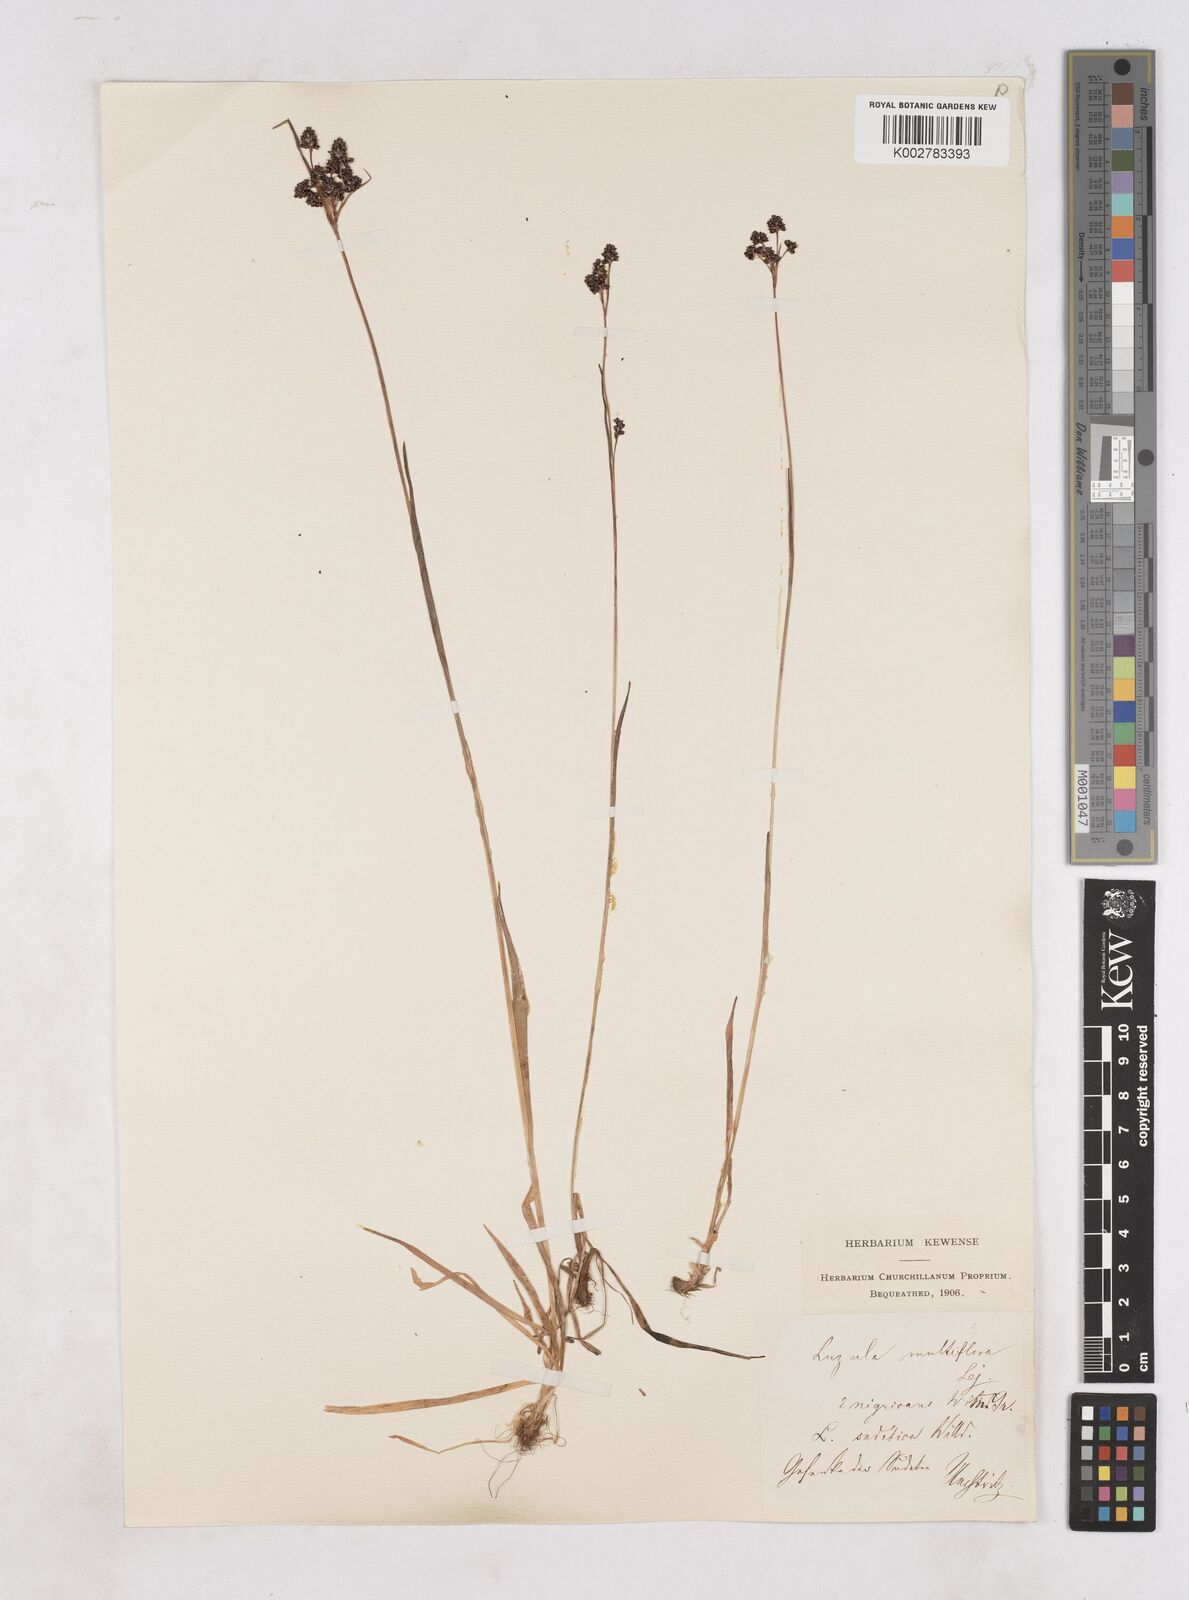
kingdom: Plantae
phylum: Tracheophyta
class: Liliopsida
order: Poales
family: Juncaceae
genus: Luzula
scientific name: Luzula multiflora
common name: Heath wood-rush
